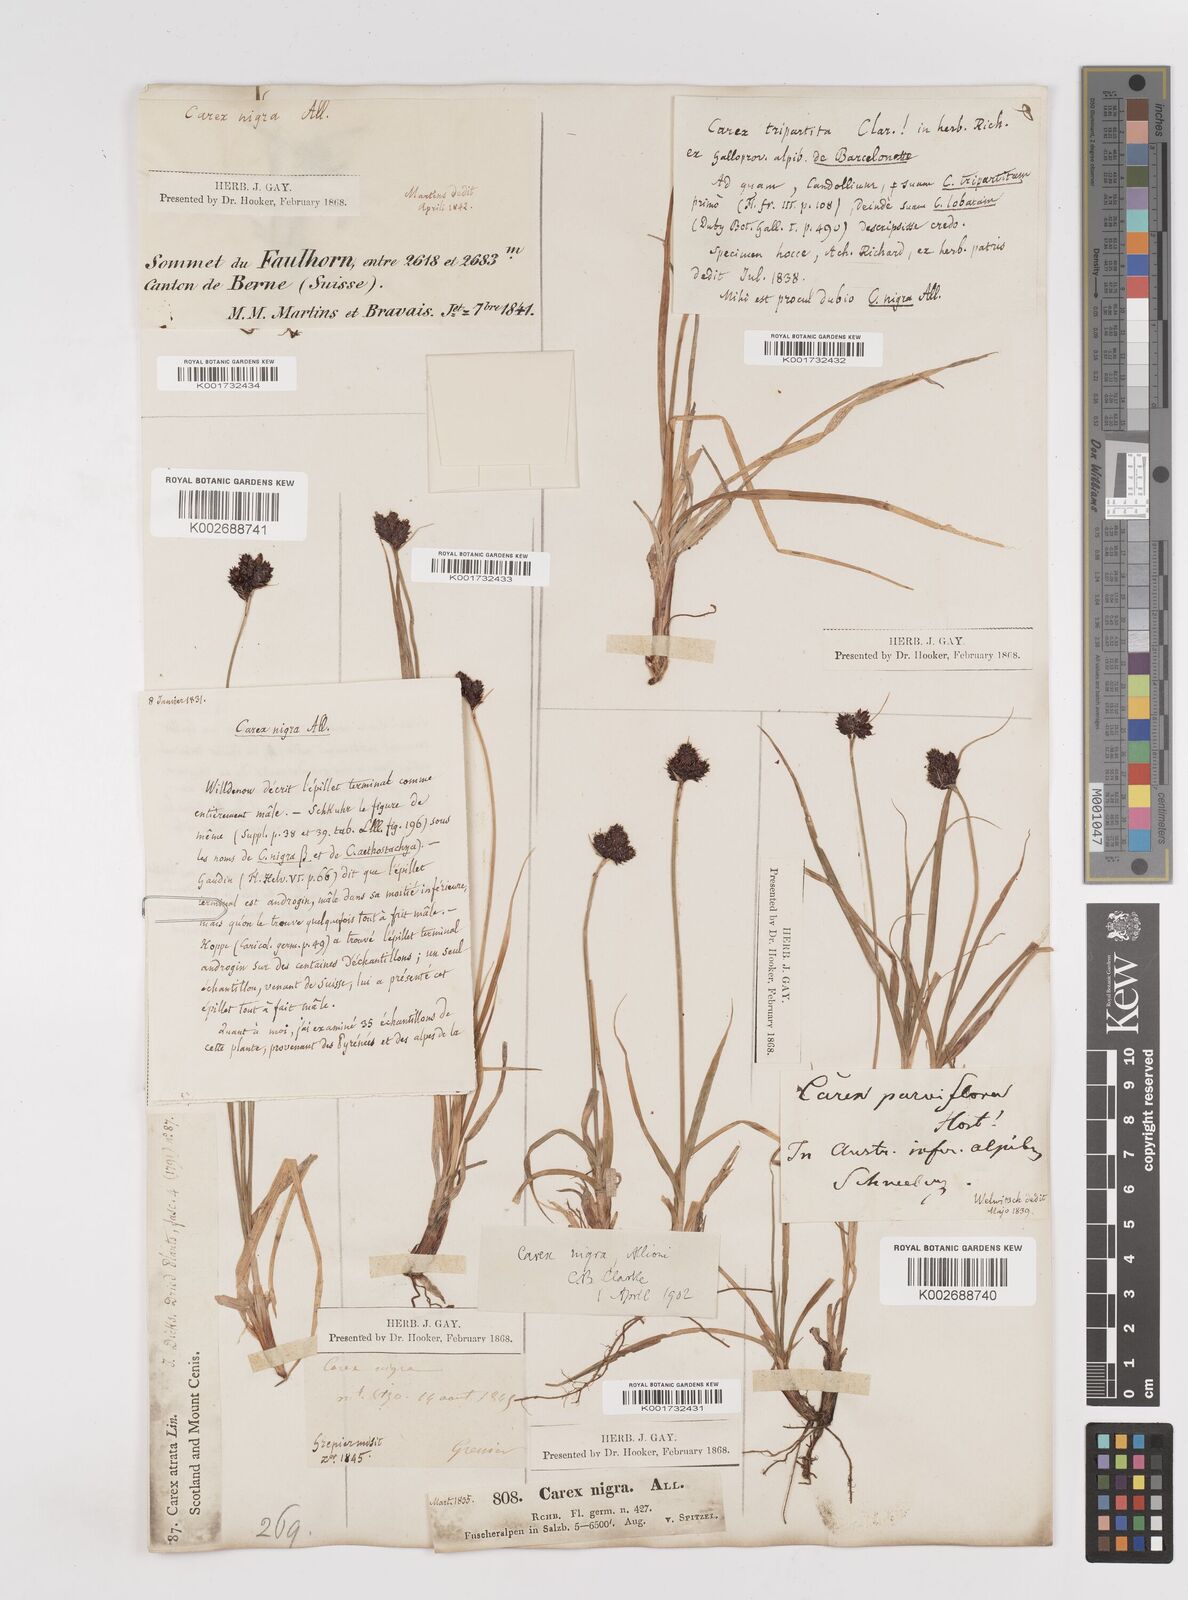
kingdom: Plantae
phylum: Tracheophyta
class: Liliopsida
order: Poales
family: Cyperaceae
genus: Carex
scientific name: Carex parviflora
